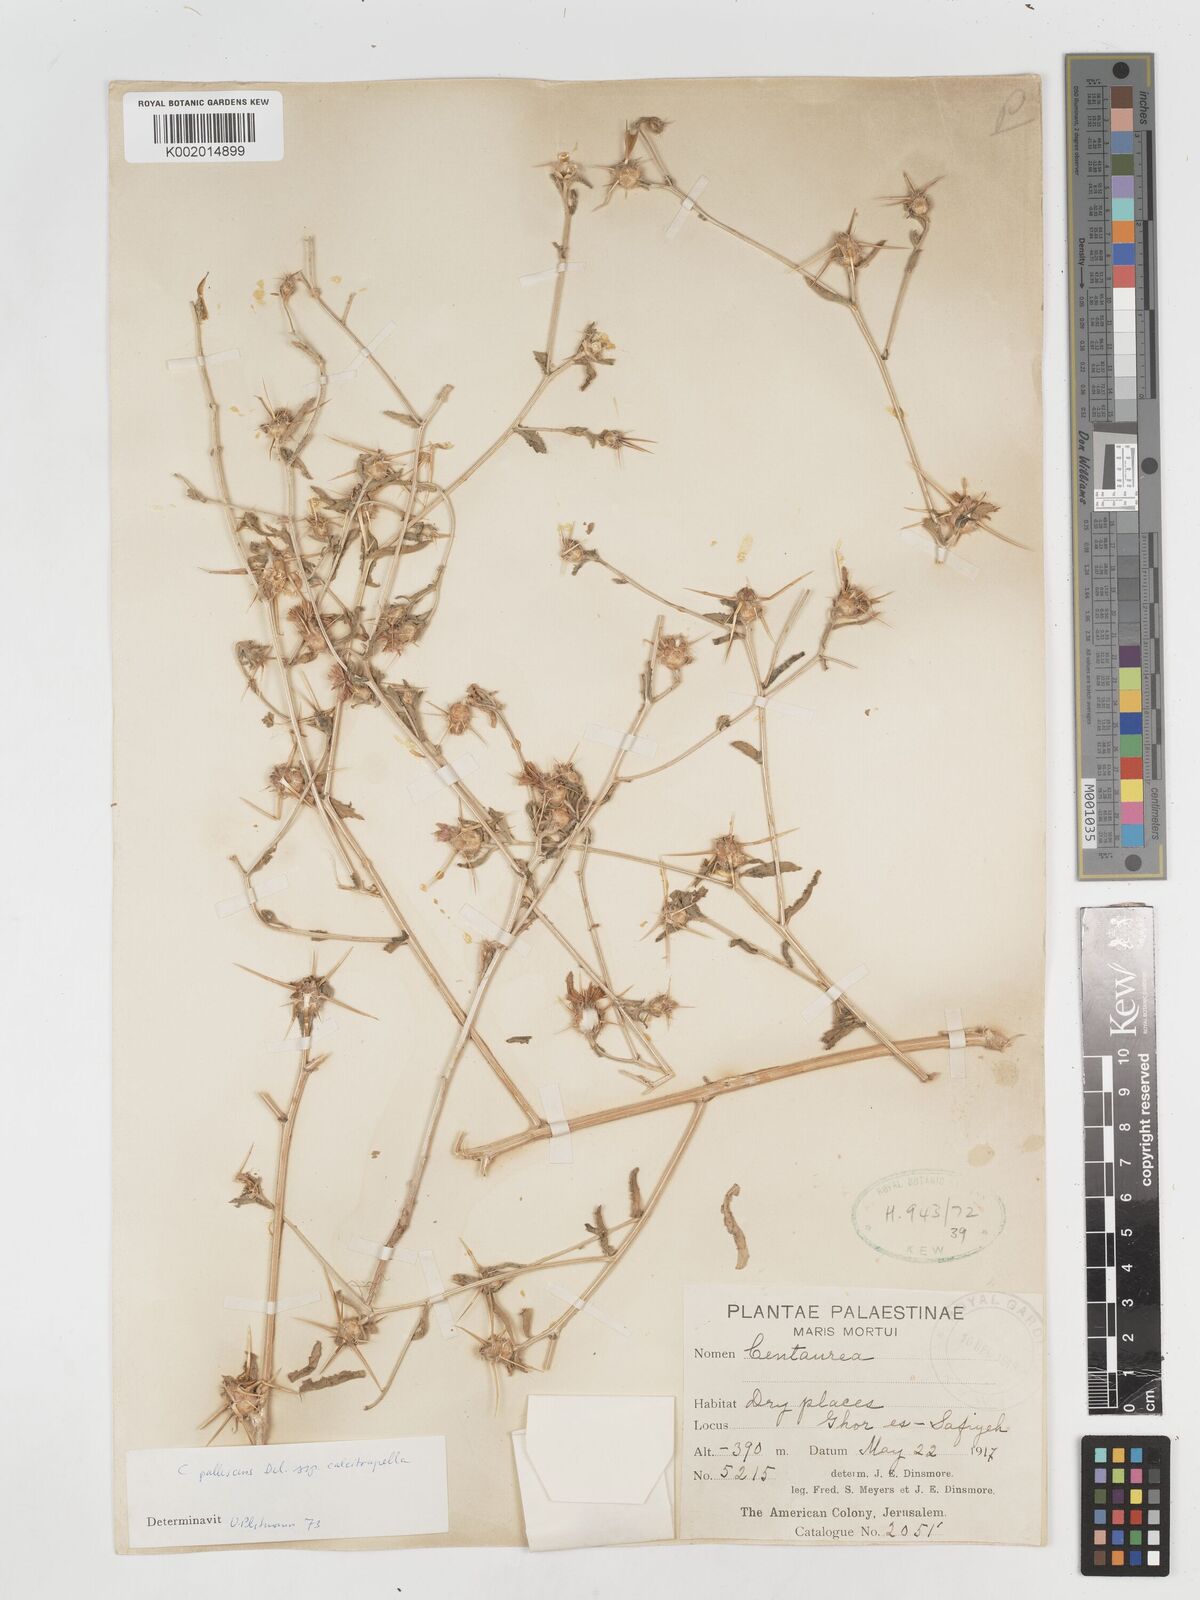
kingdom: Plantae
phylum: Tracheophyta
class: Magnoliopsida
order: Asterales
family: Asteraceae
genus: Centaurea
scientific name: Centaurea pallescens
